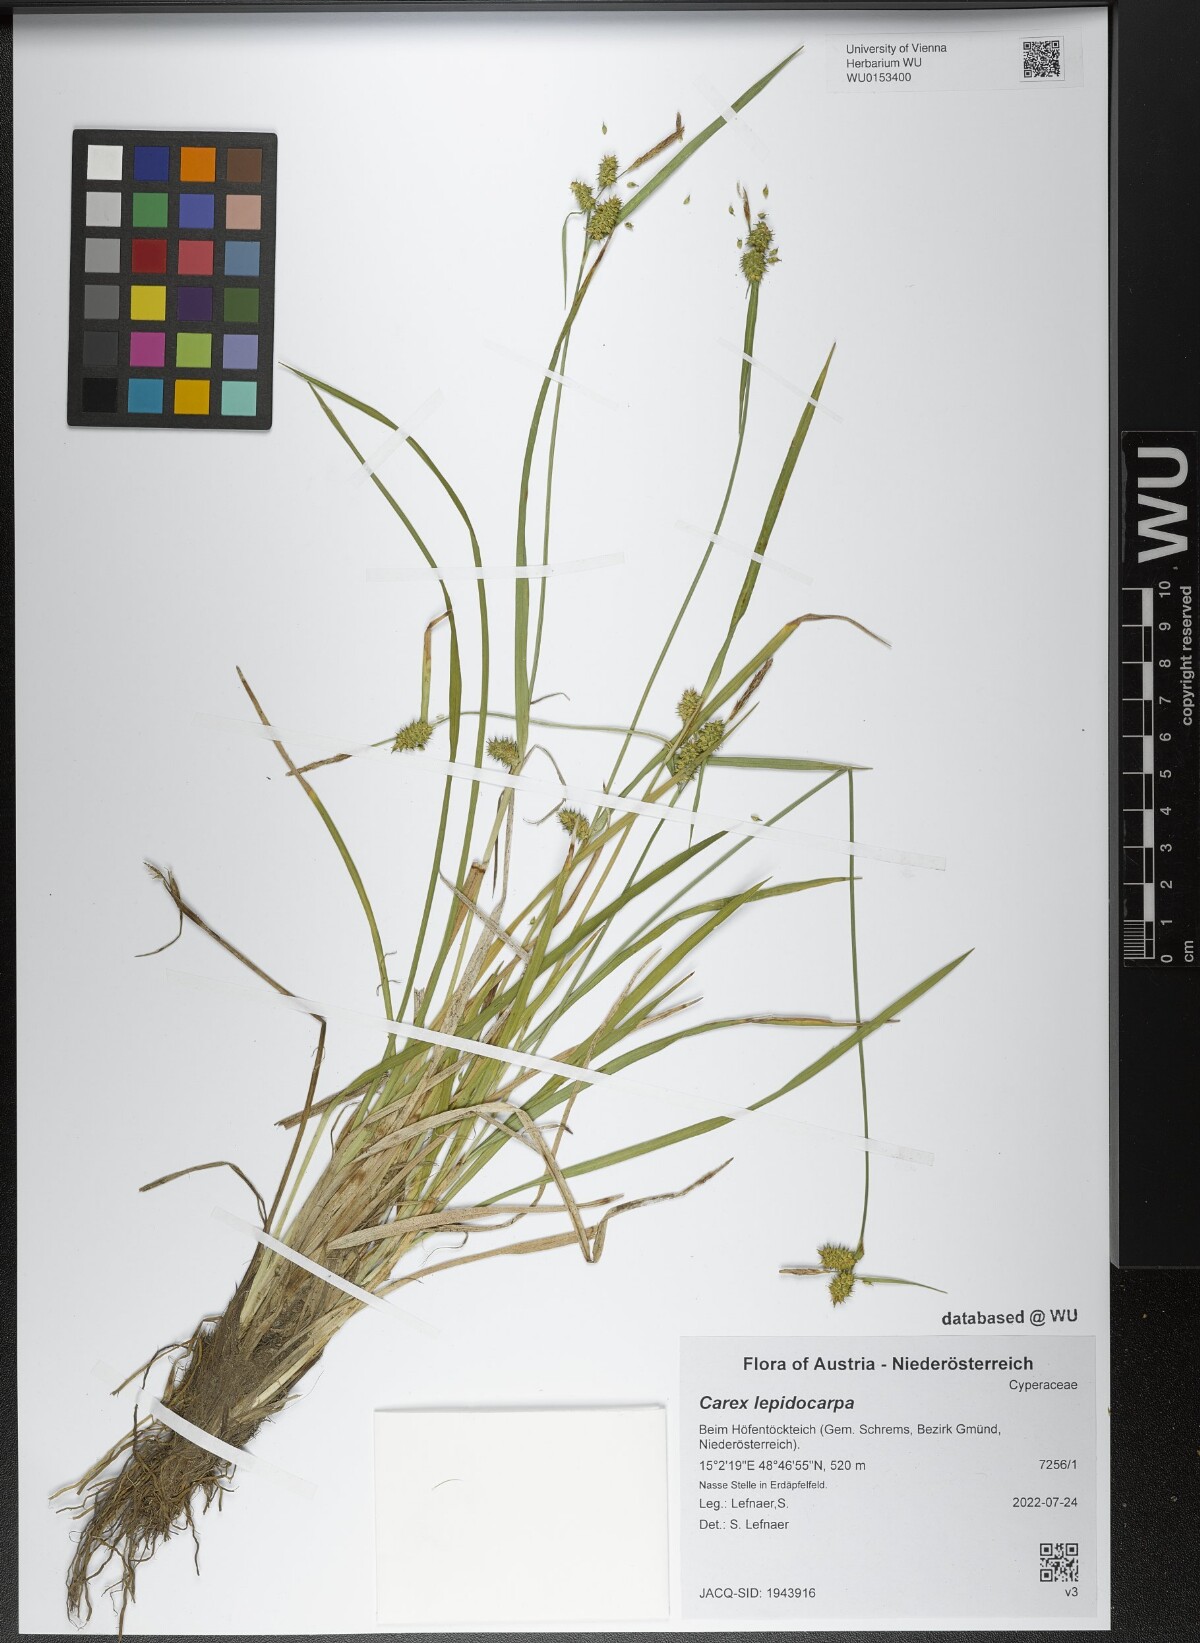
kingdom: Plantae
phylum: Tracheophyta
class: Liliopsida
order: Poales
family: Cyperaceae
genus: Carex
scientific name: Carex lepidocarpa
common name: Long-stalked yellow-sedge
